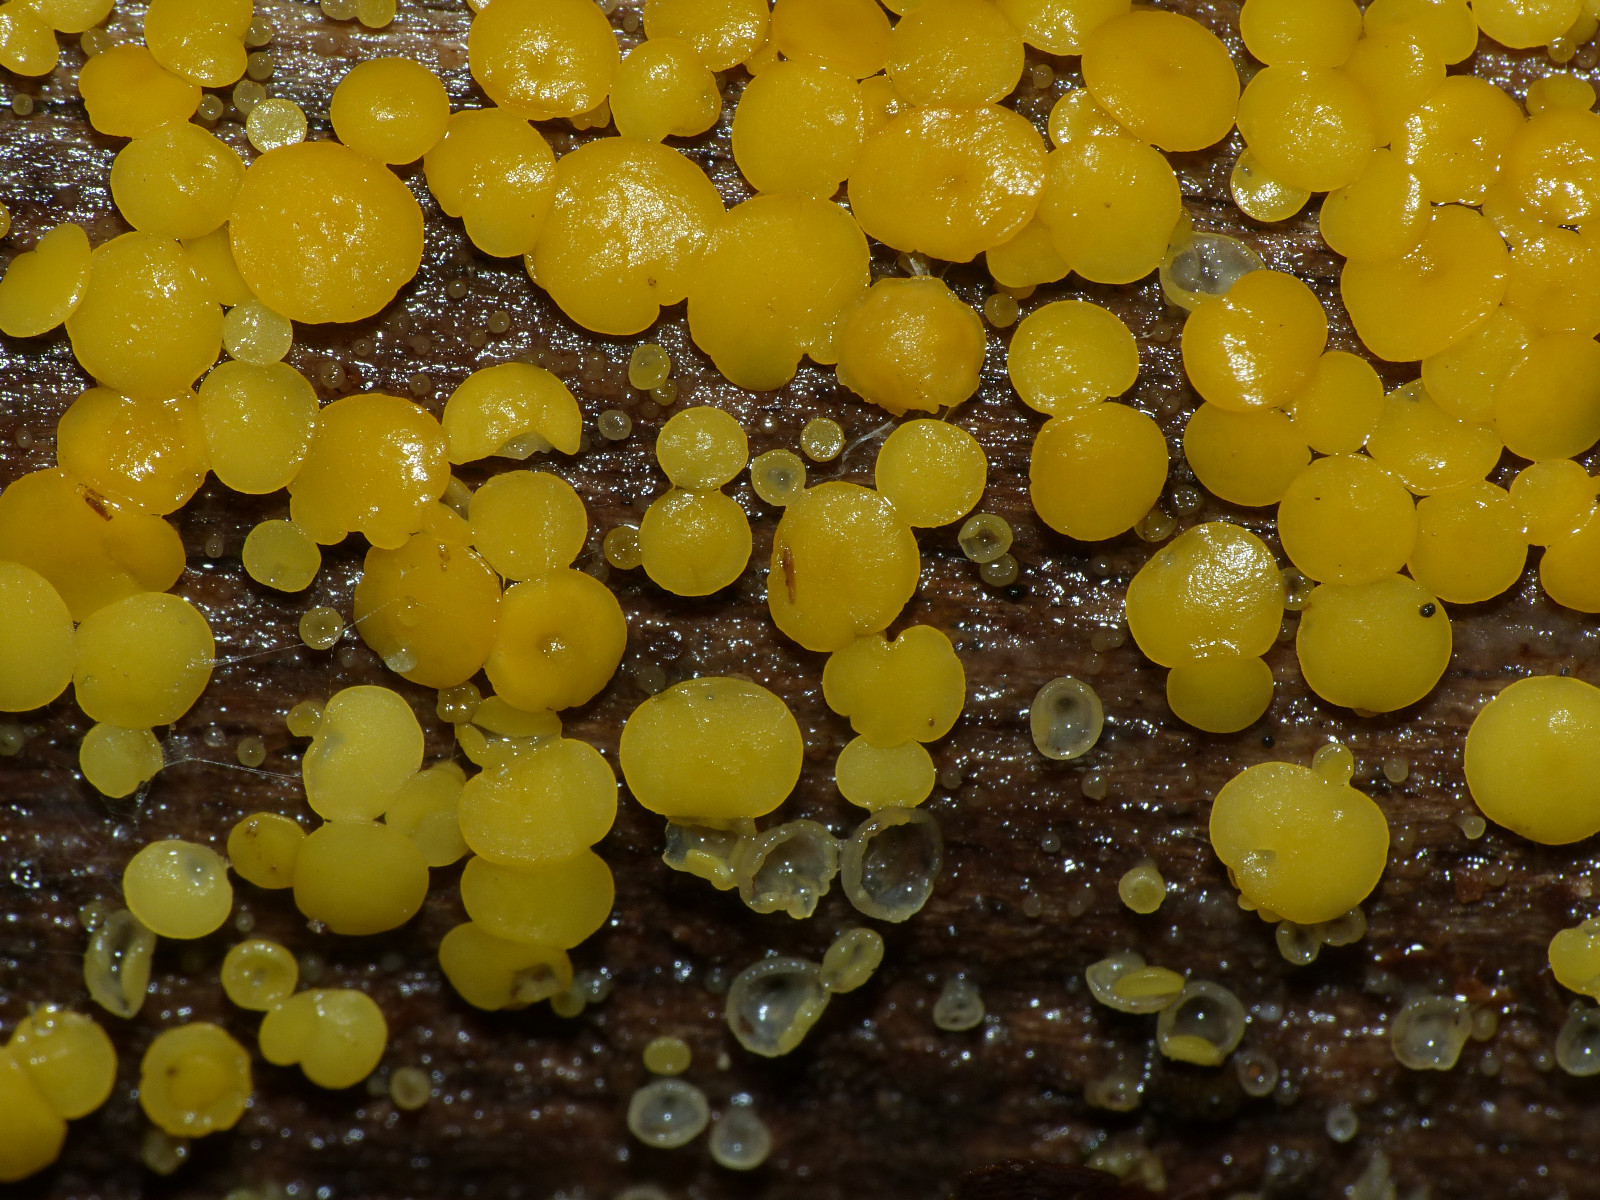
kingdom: Fungi
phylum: Ascomycota
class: Leotiomycetes
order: Helotiales
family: Pezizellaceae
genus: Calycina
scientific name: Calycina citrina
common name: almindelig gulskive
